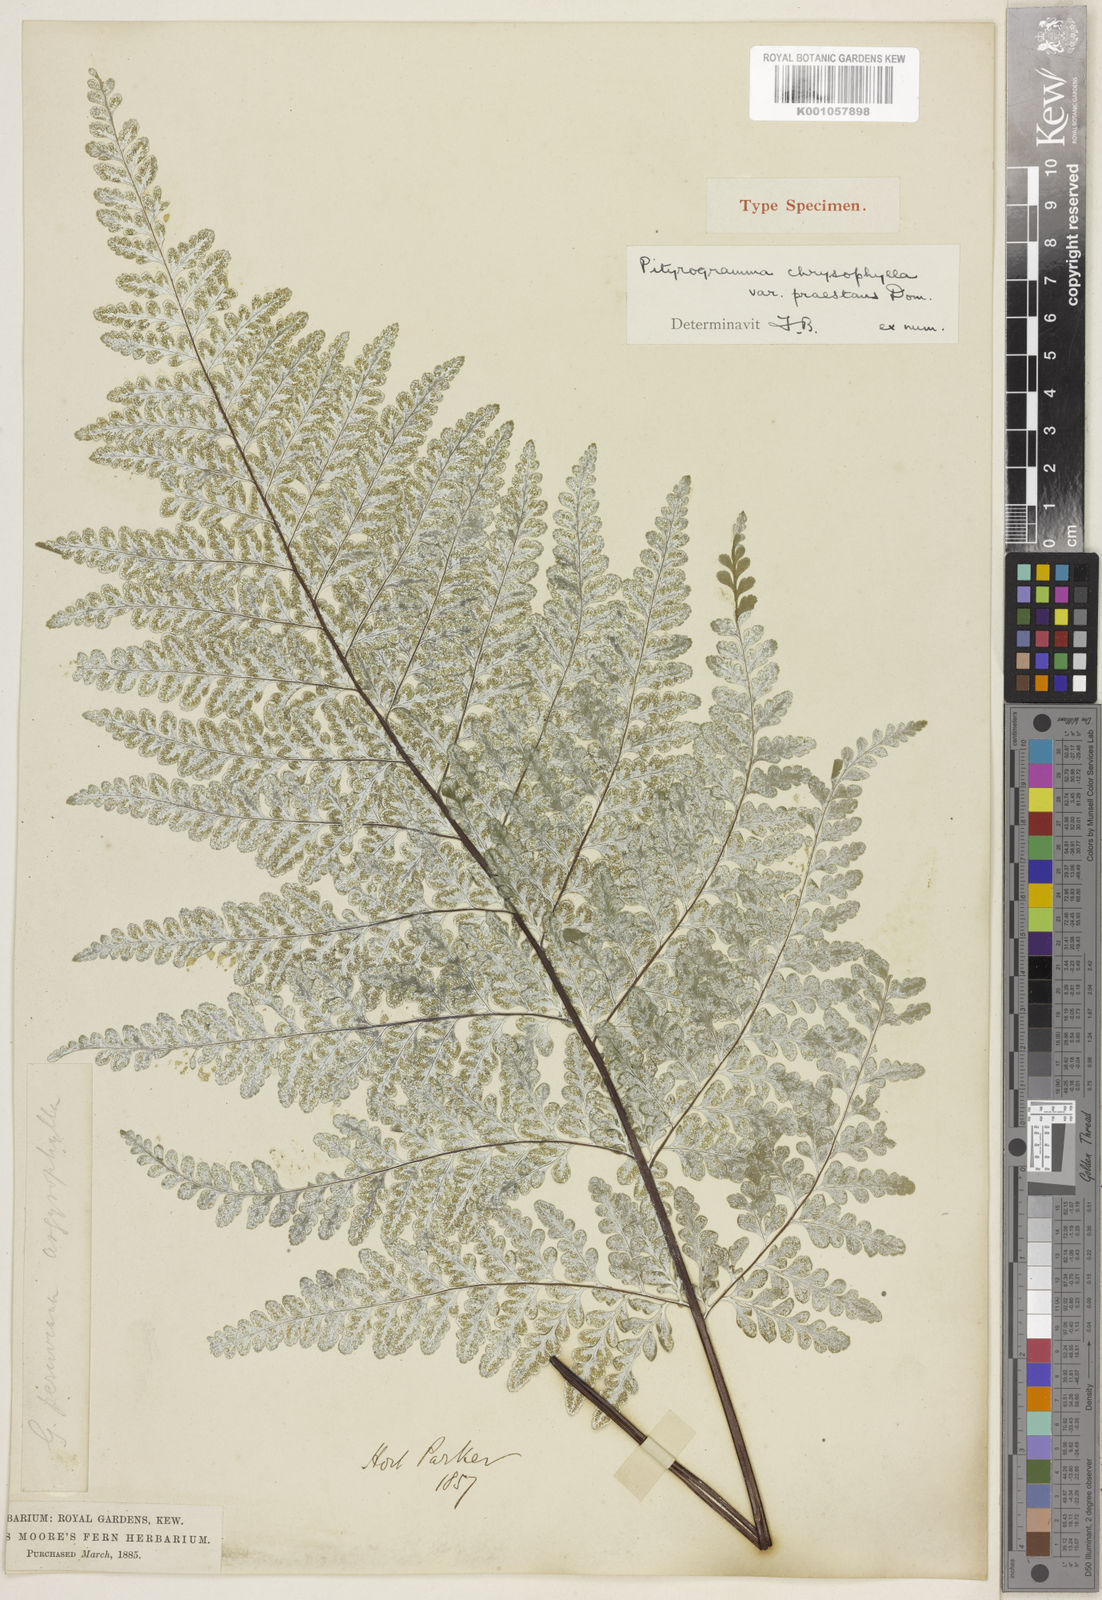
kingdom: Plantae
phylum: Tracheophyta
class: Polypodiopsida
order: Polypodiales
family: Pteridaceae
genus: Pityrogramma
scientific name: Pityrogramma chrysophylla
